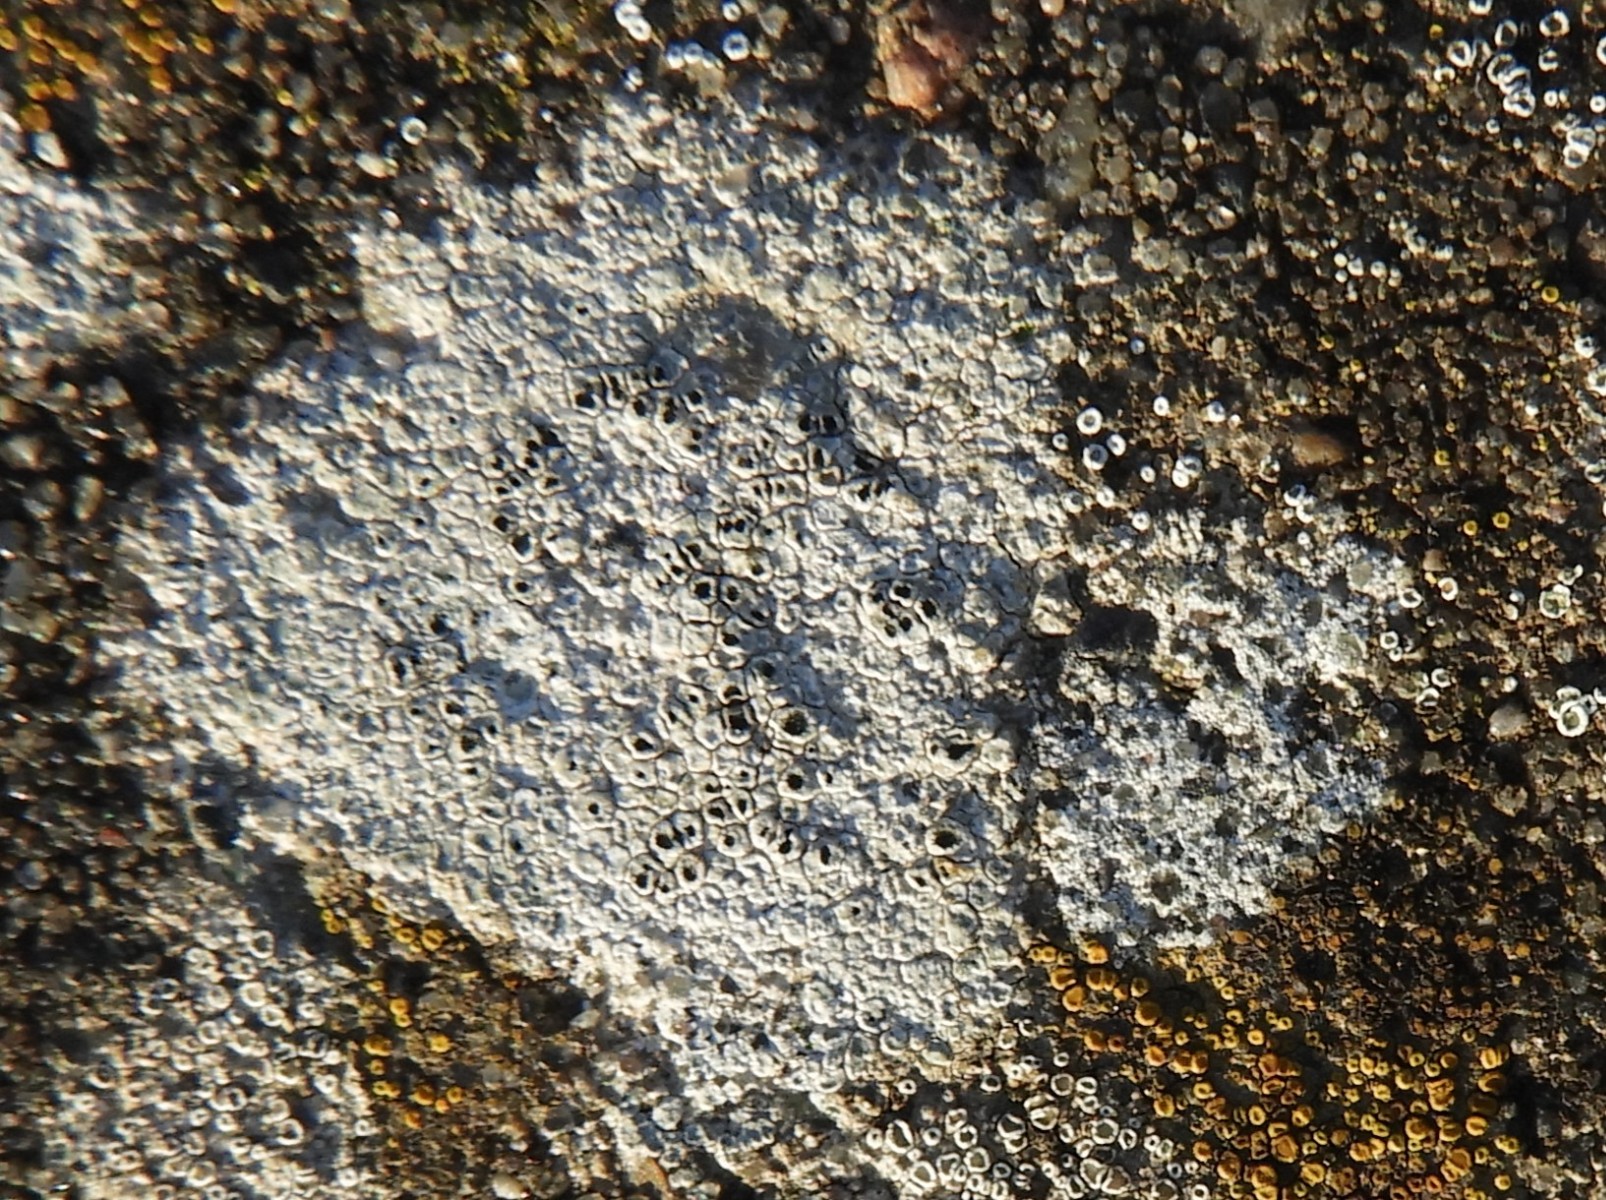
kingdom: Fungi
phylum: Ascomycota
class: Lecanoromycetes
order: Pertusariales
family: Megasporaceae
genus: Circinaria
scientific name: Circinaria contorta
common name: indviklet hulskivelav
